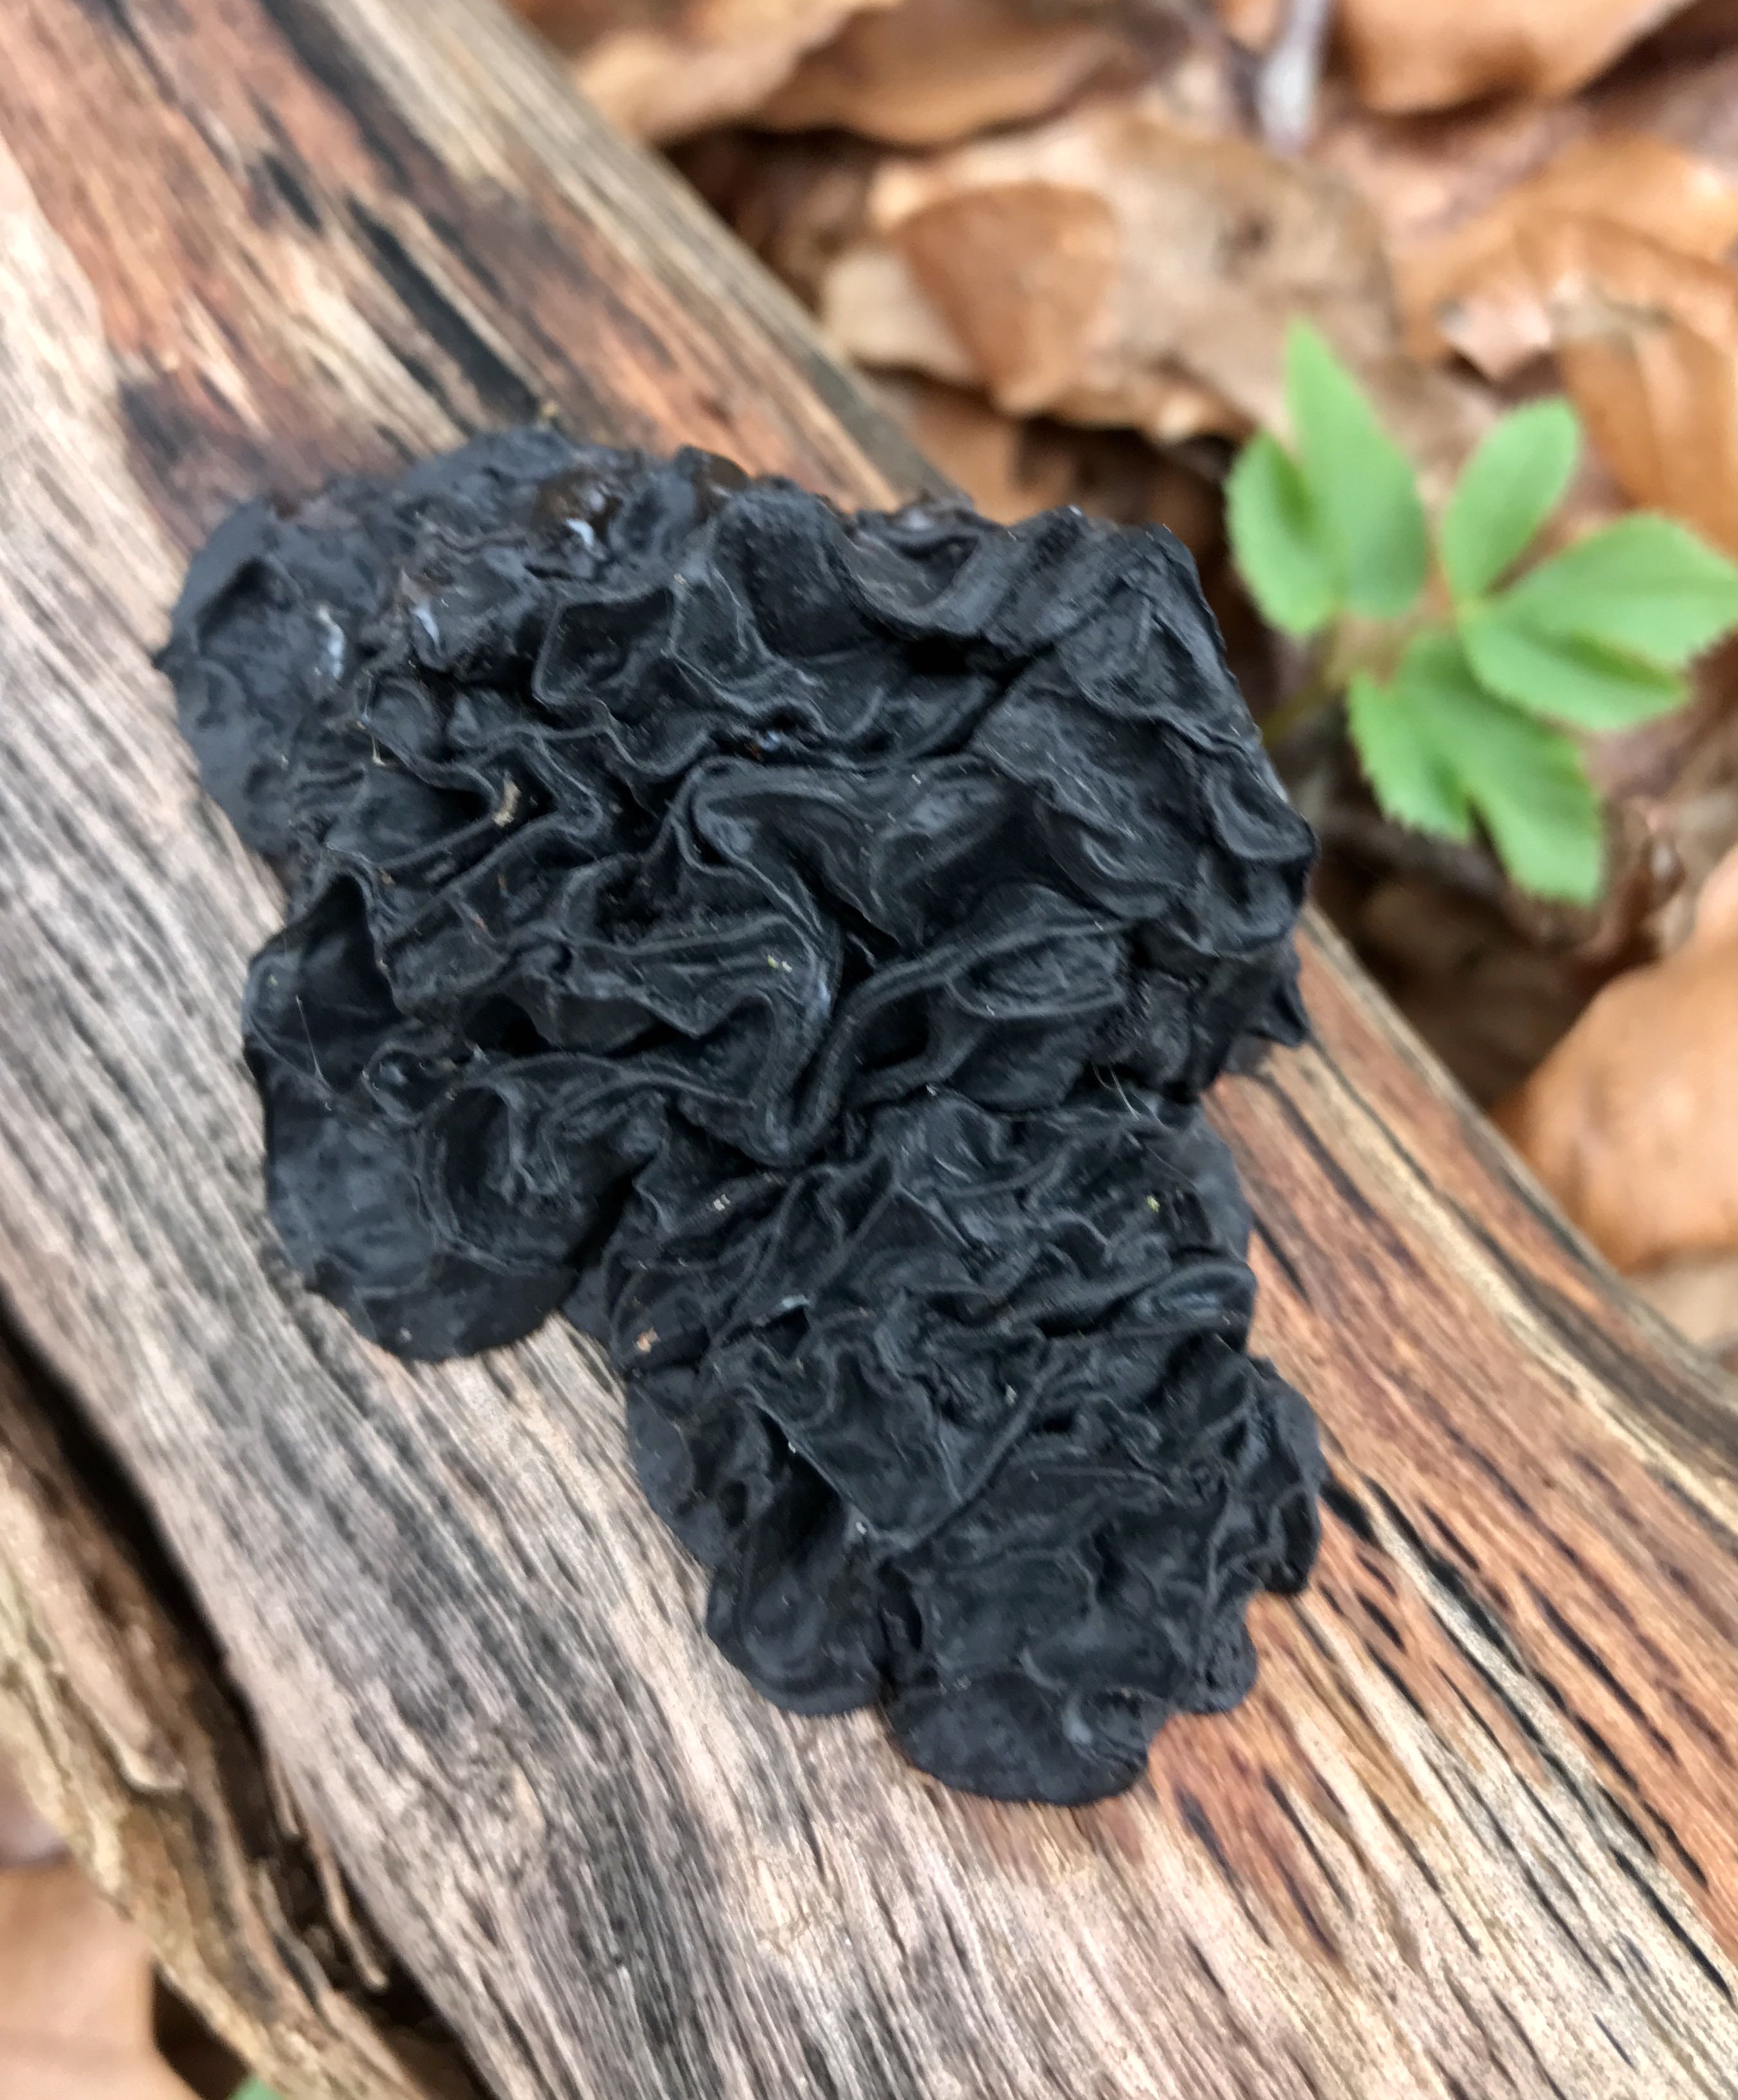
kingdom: Fungi
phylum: Basidiomycota
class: Agaricomycetes
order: Auriculariales
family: Auriculariaceae
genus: Exidia
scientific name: Exidia nigricans
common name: almindelig bævretop
